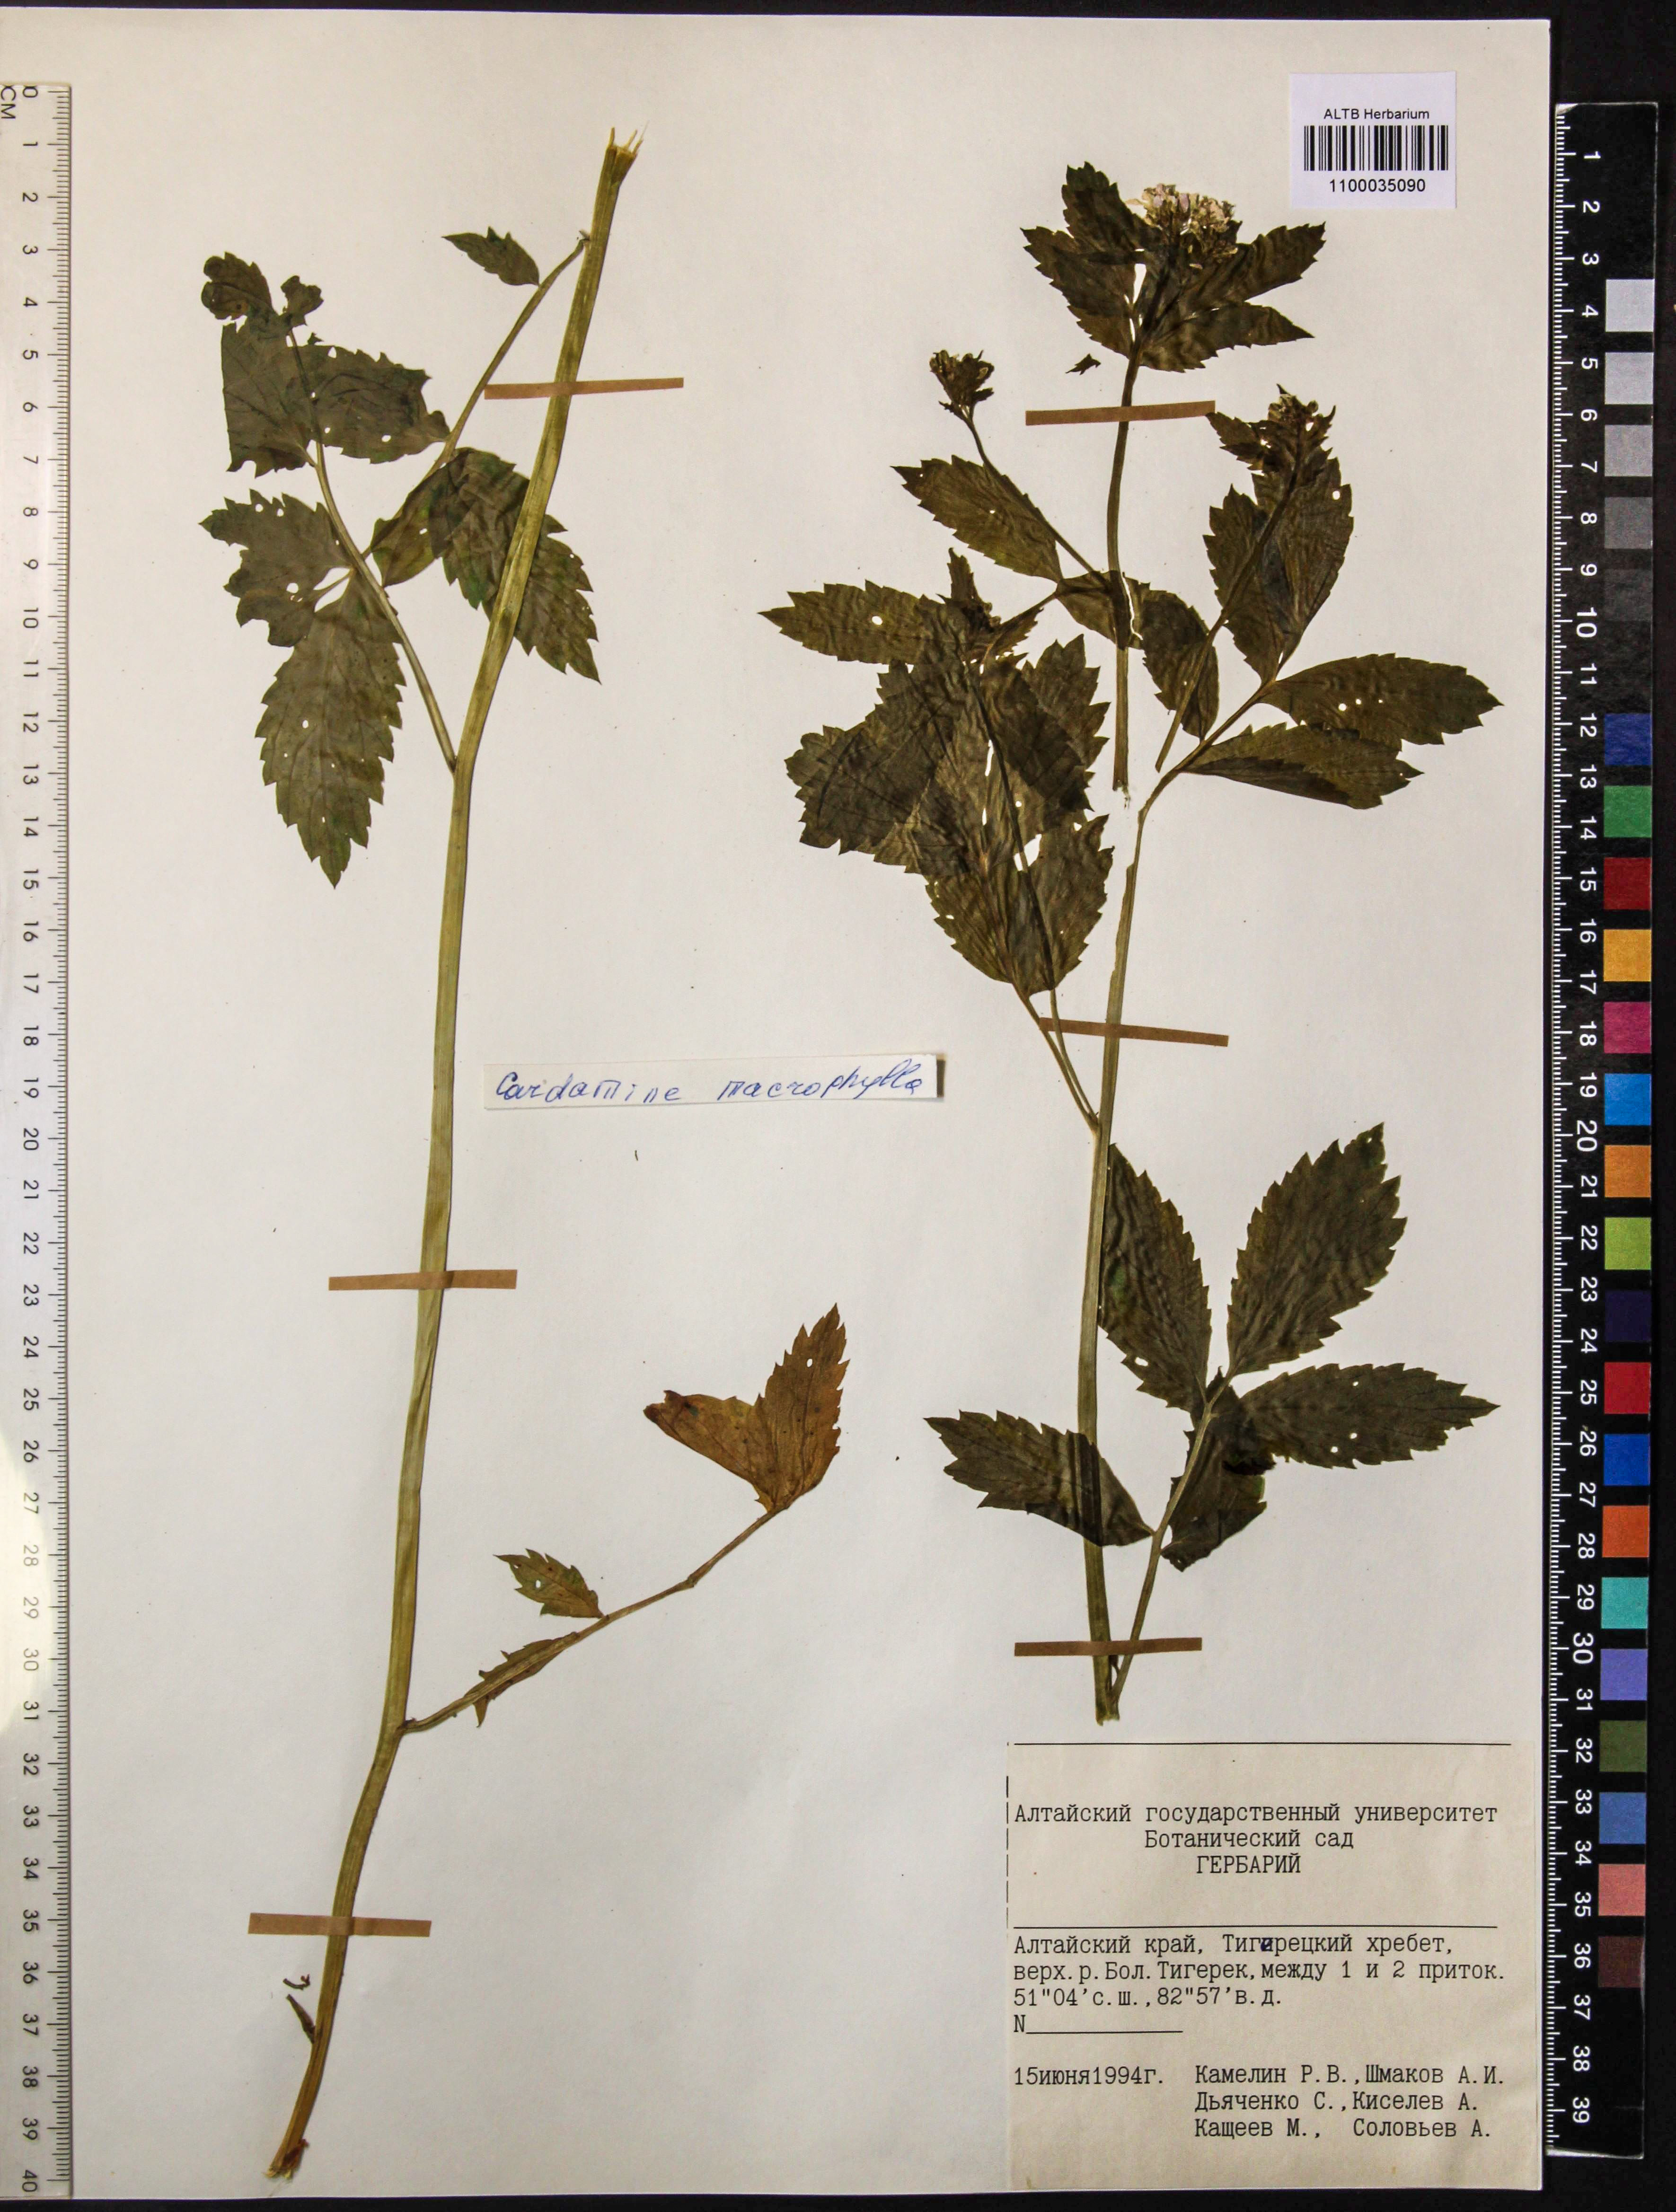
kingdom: Plantae
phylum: Tracheophyta
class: Magnoliopsida
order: Brassicales
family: Brassicaceae
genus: Cardamine
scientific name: Cardamine macrophylla
